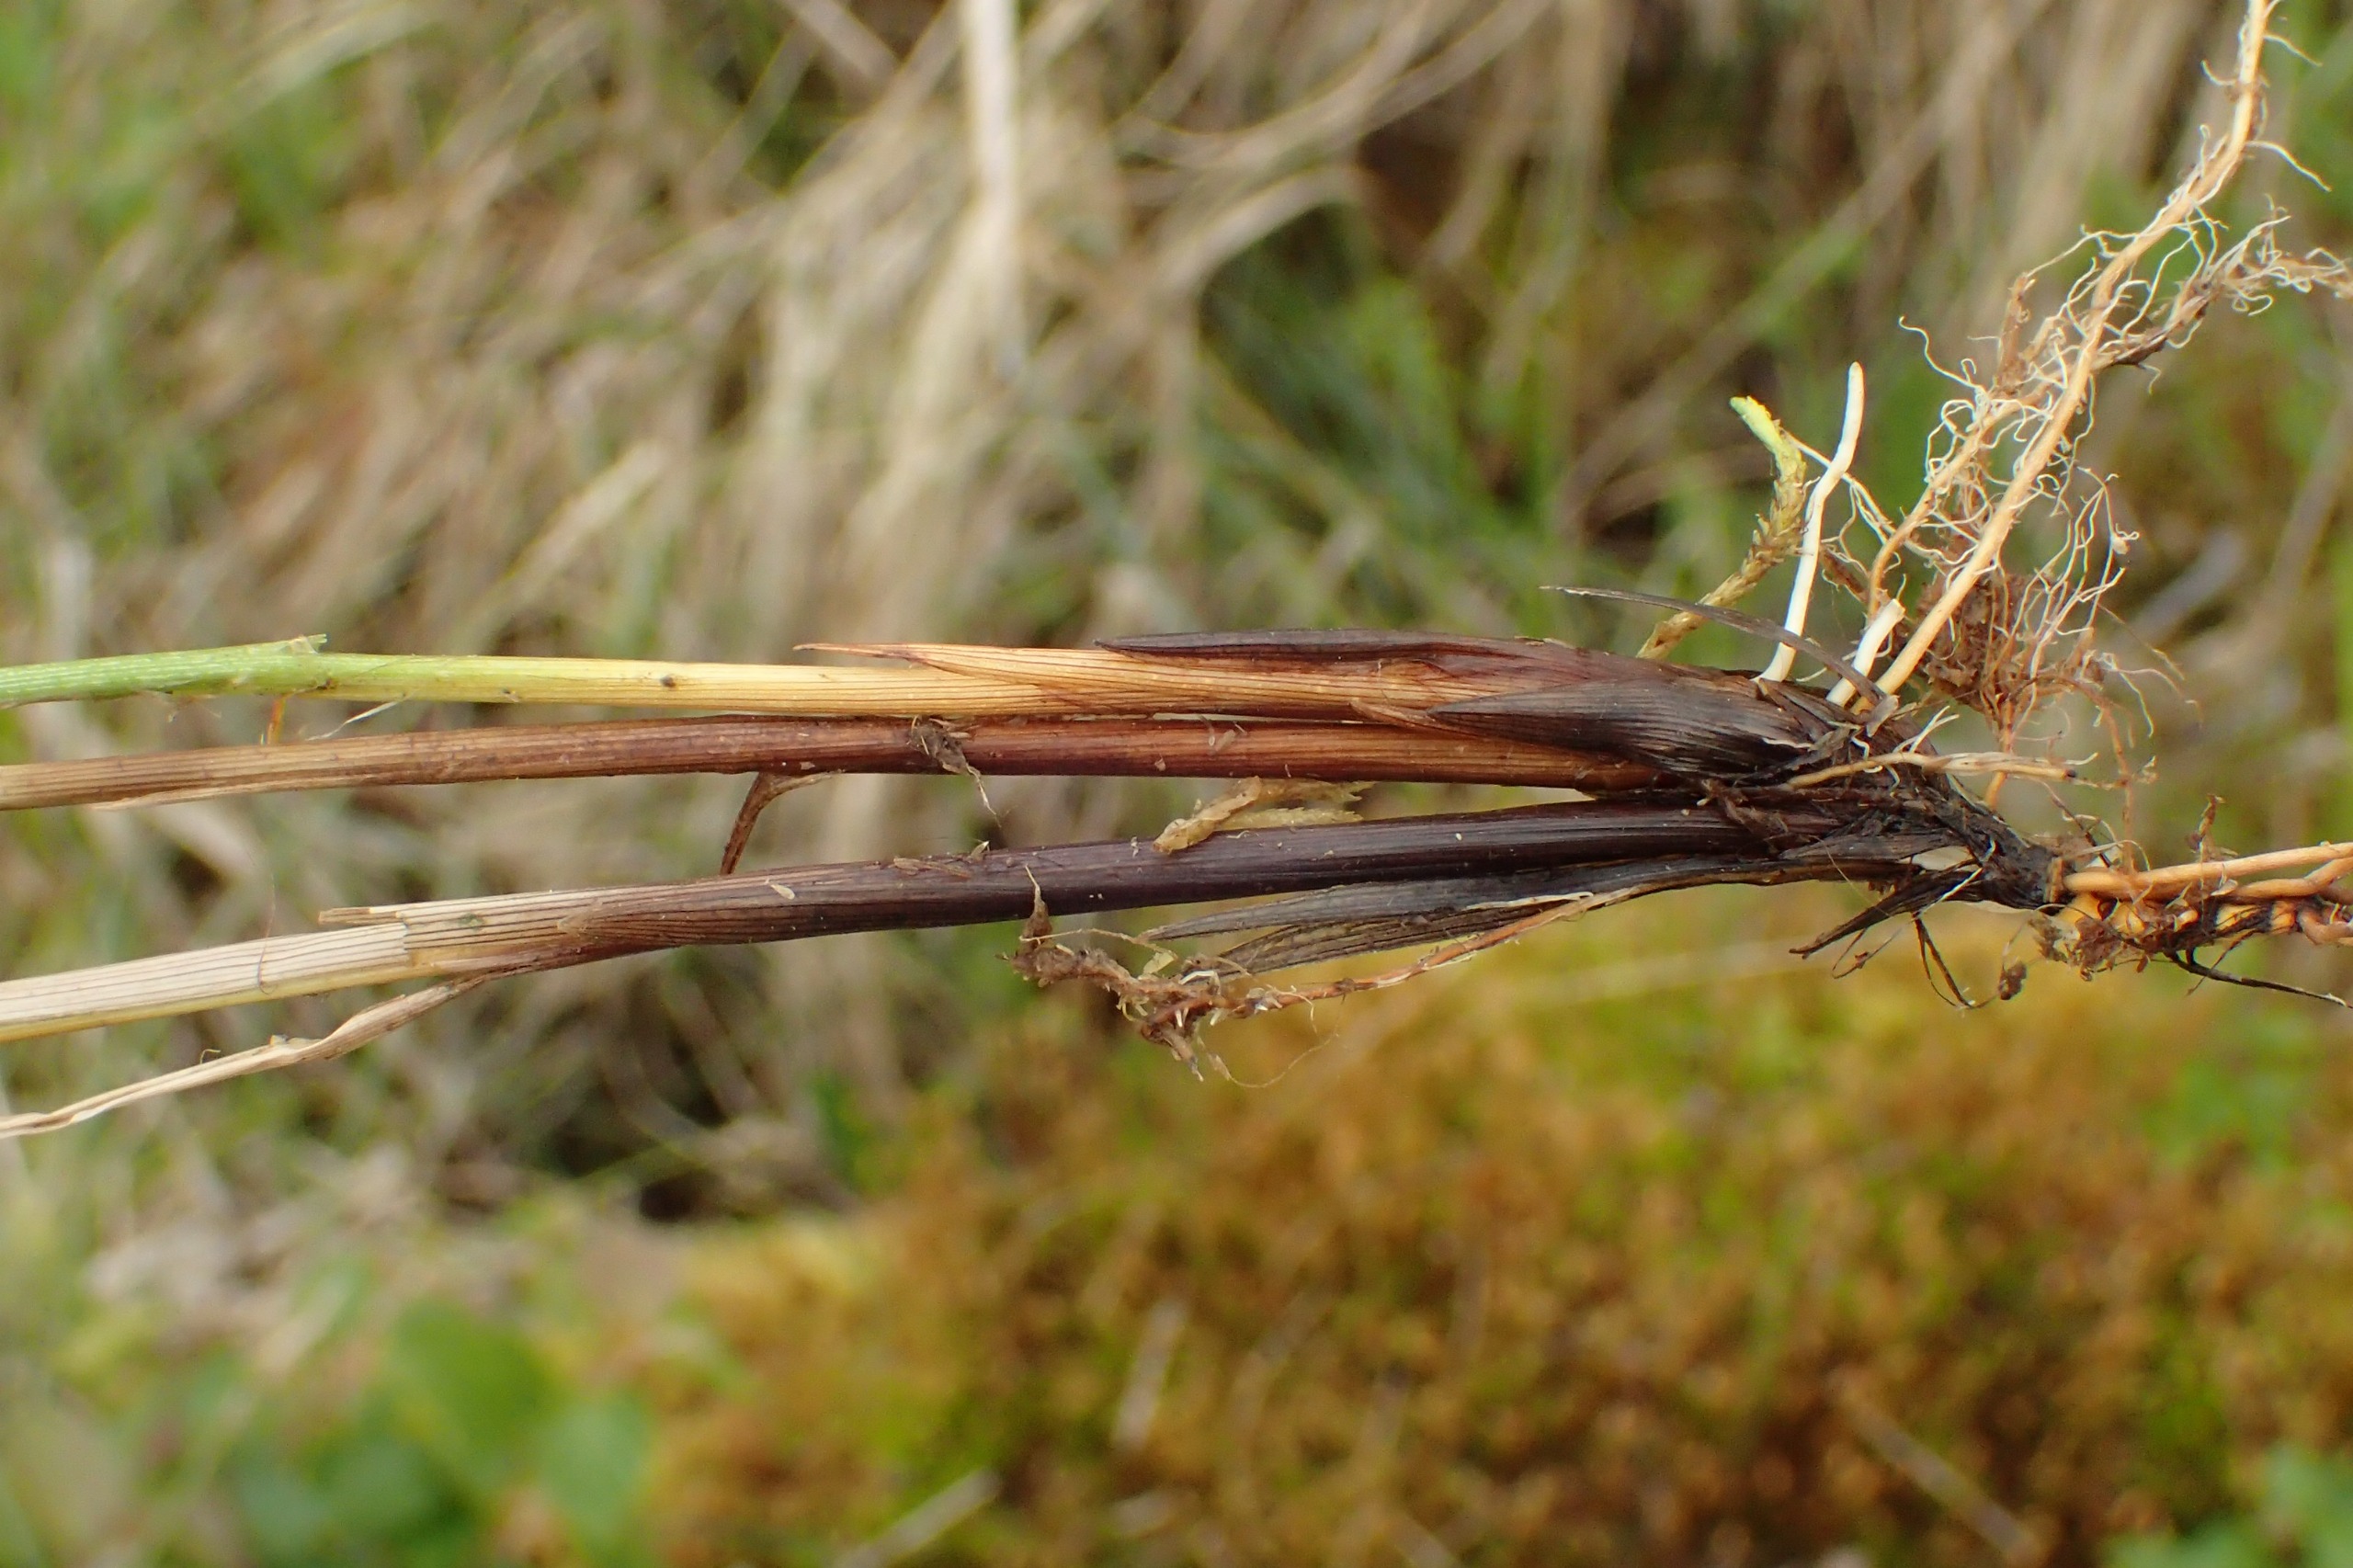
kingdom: Plantae
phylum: Tracheophyta
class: Liliopsida
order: Poales
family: Cyperaceae
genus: Carex
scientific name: Carex diandra
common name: Trindstænglet star
